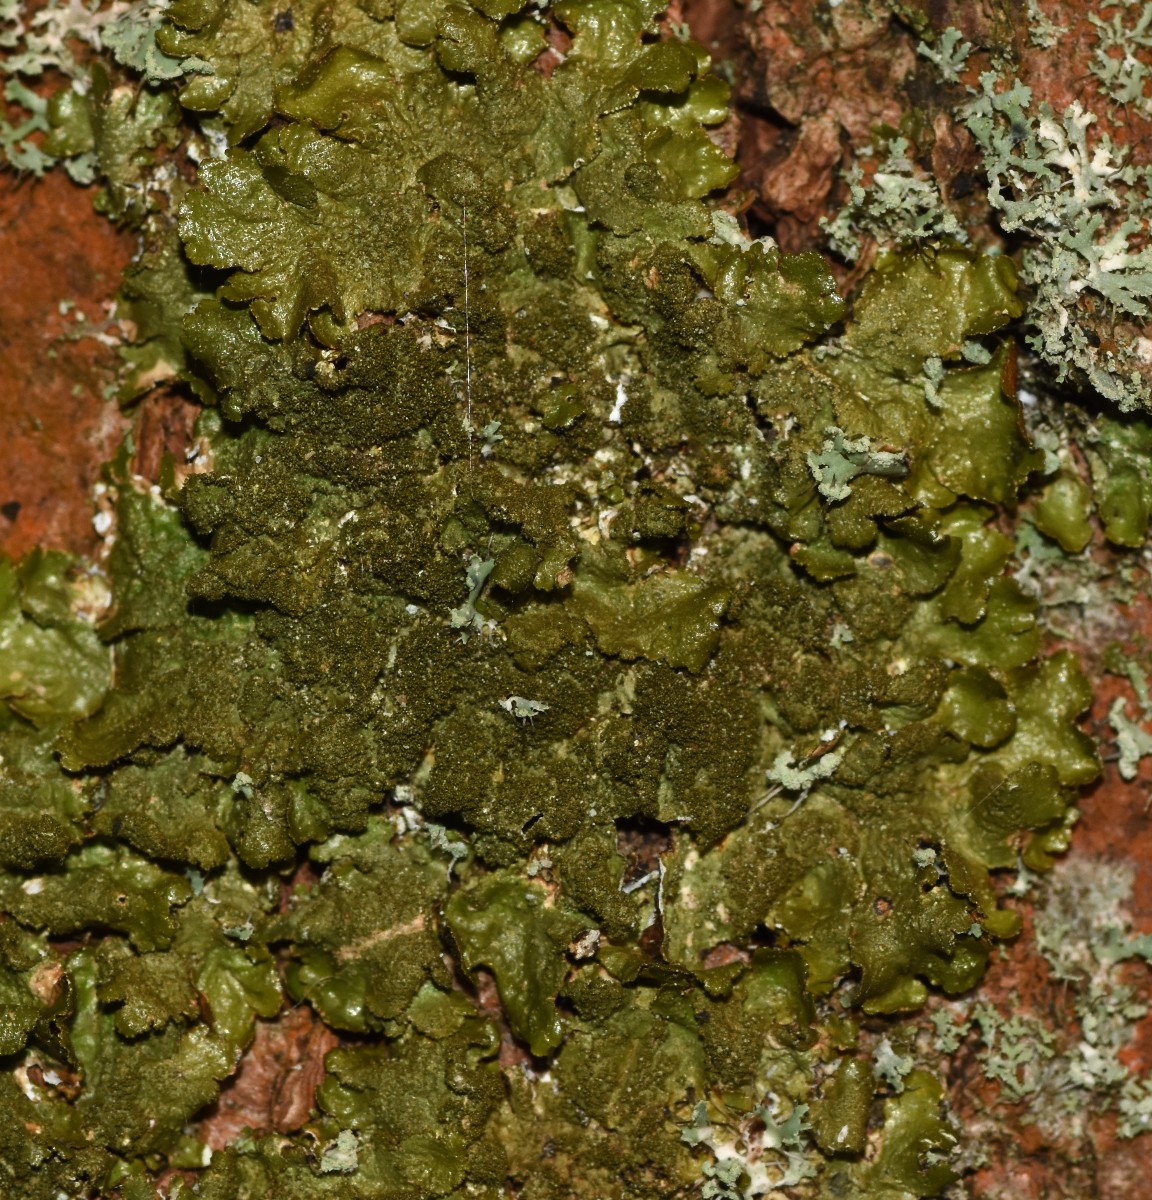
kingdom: Fungi
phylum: Ascomycota
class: Lecanoromycetes
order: Lecanorales
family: Parmeliaceae
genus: Melanelixia
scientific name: Melanelixia glabratula
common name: glinsende skållav
